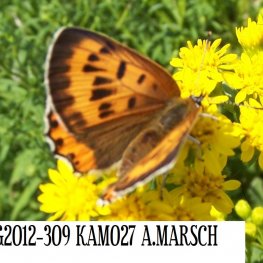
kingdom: Animalia
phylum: Arthropoda
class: Insecta
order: Lepidoptera
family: Sesiidae
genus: Sesia
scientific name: Sesia Lycaena hyllus
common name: Bronze Copper
